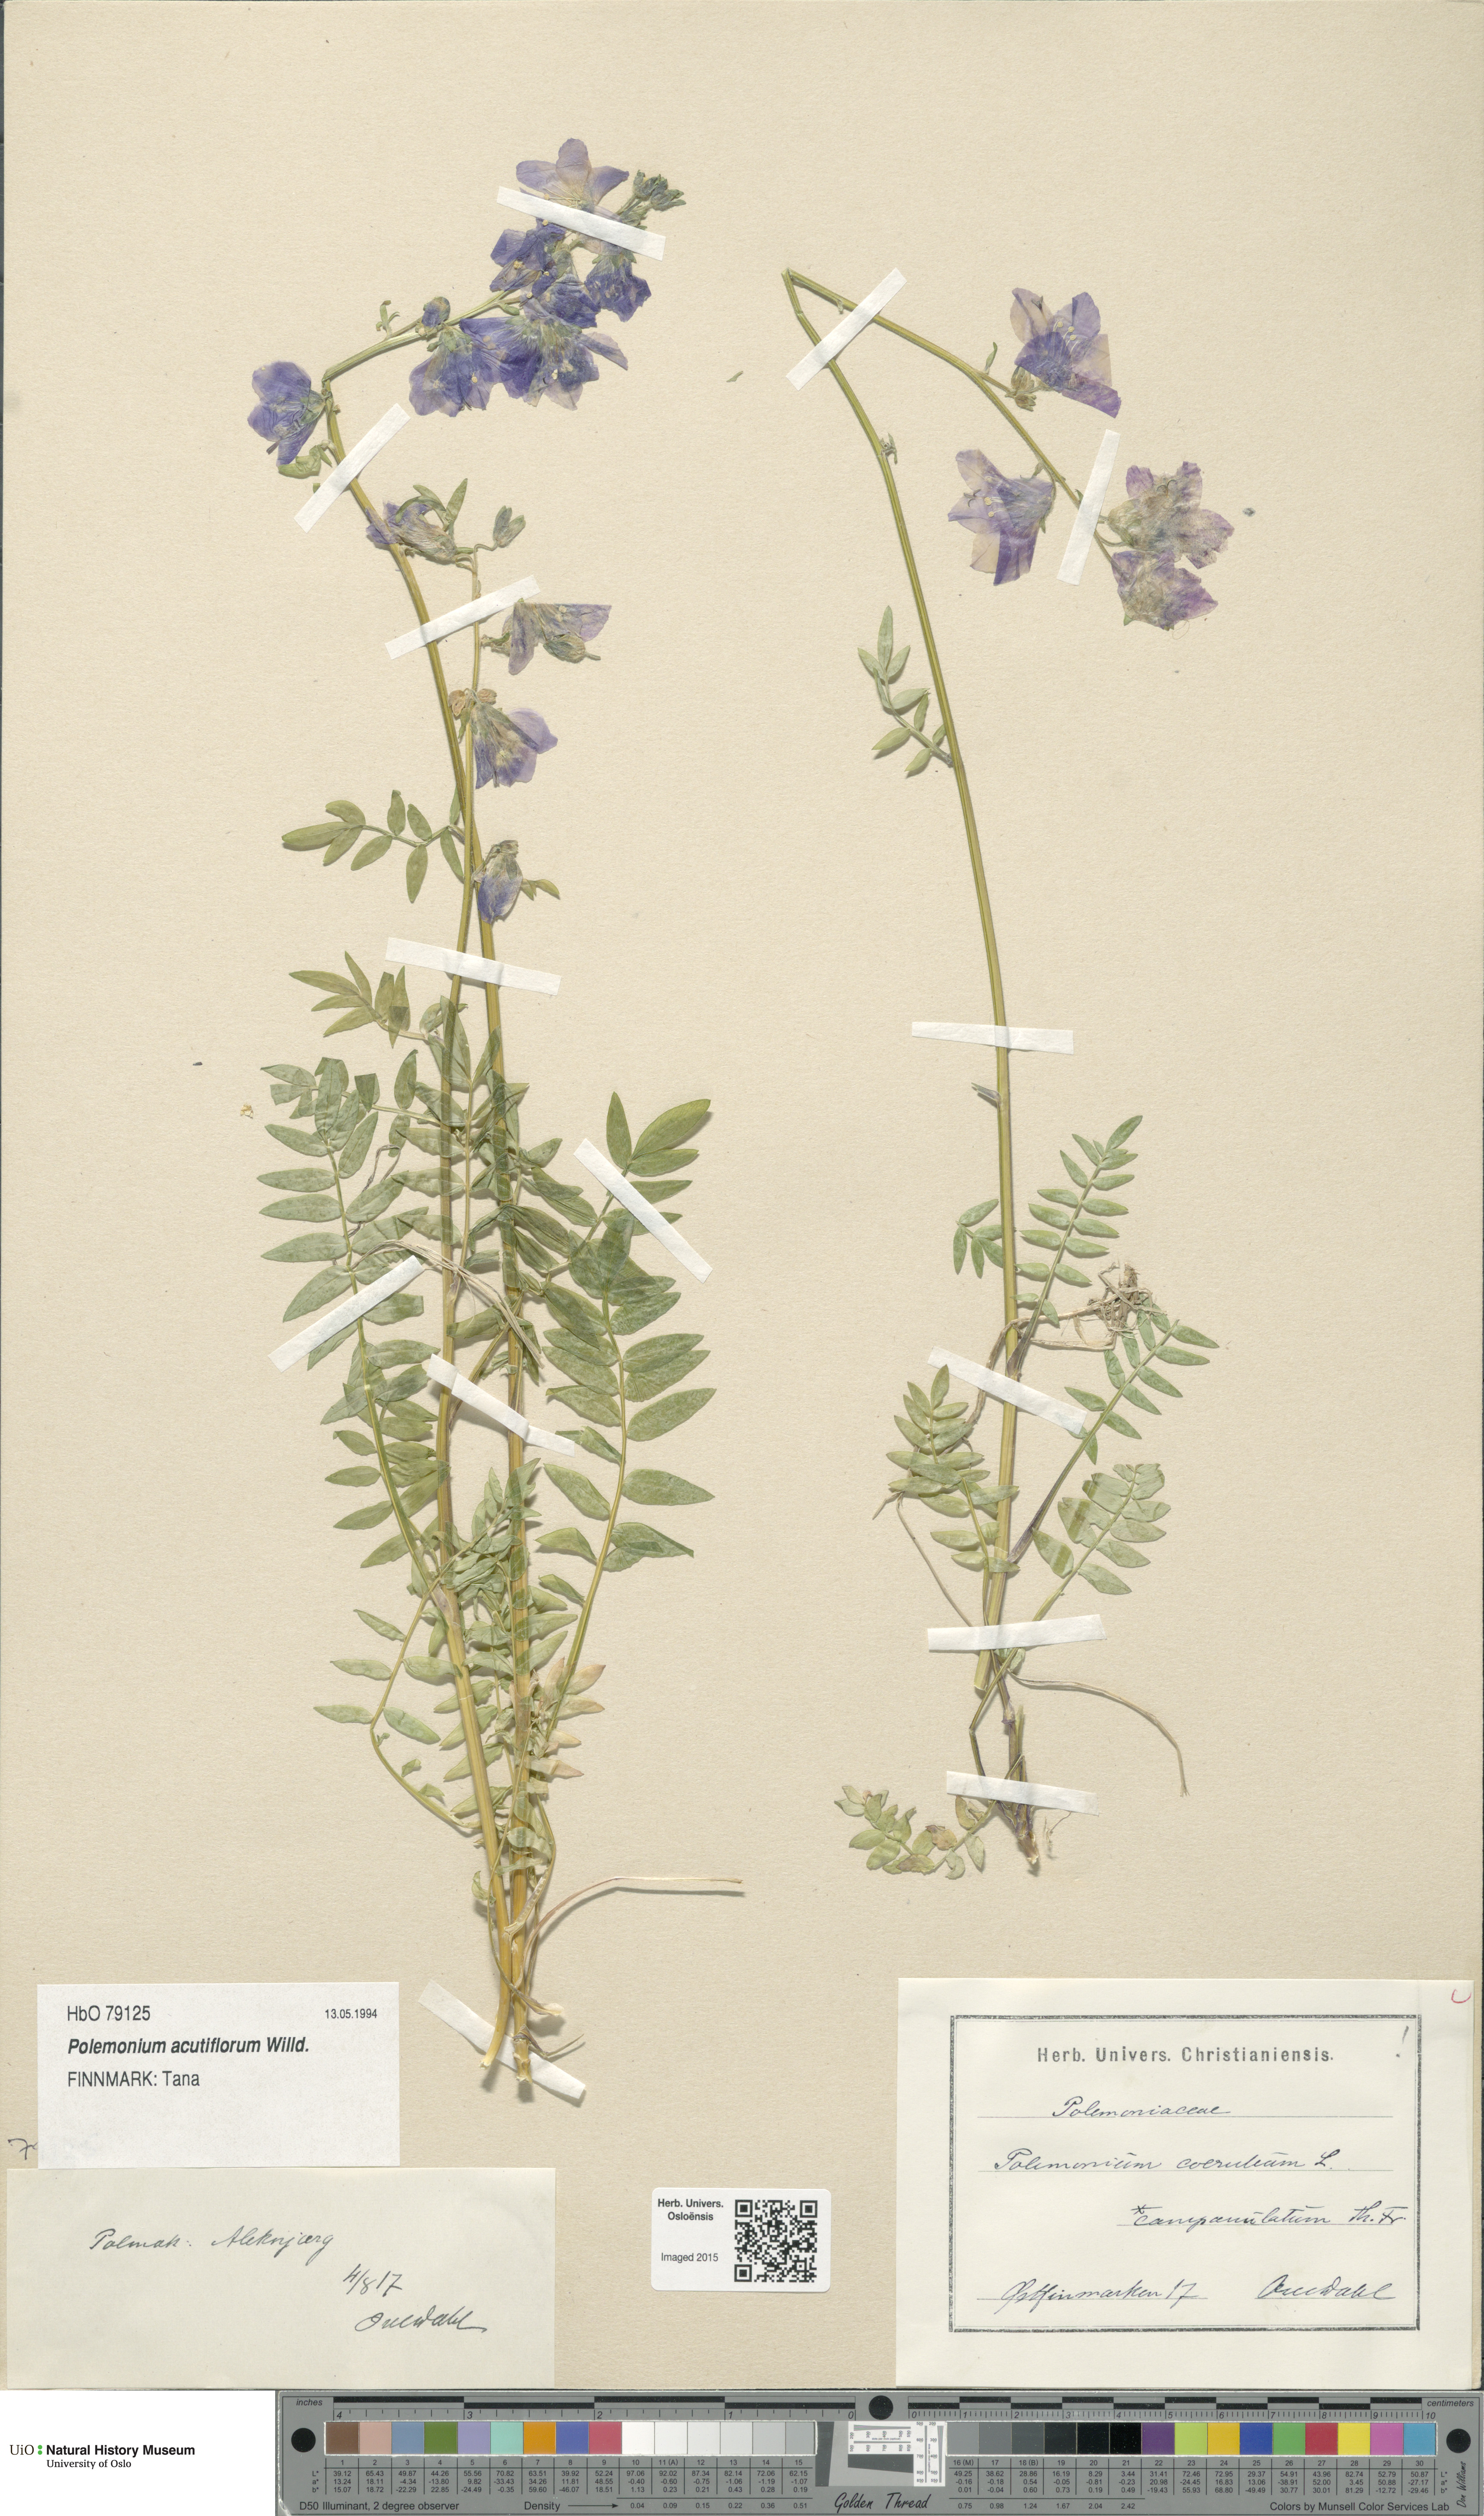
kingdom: Plantae
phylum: Tracheophyta
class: Magnoliopsida
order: Ericales
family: Polemoniaceae
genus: Polemonium
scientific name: Polemonium villosum
